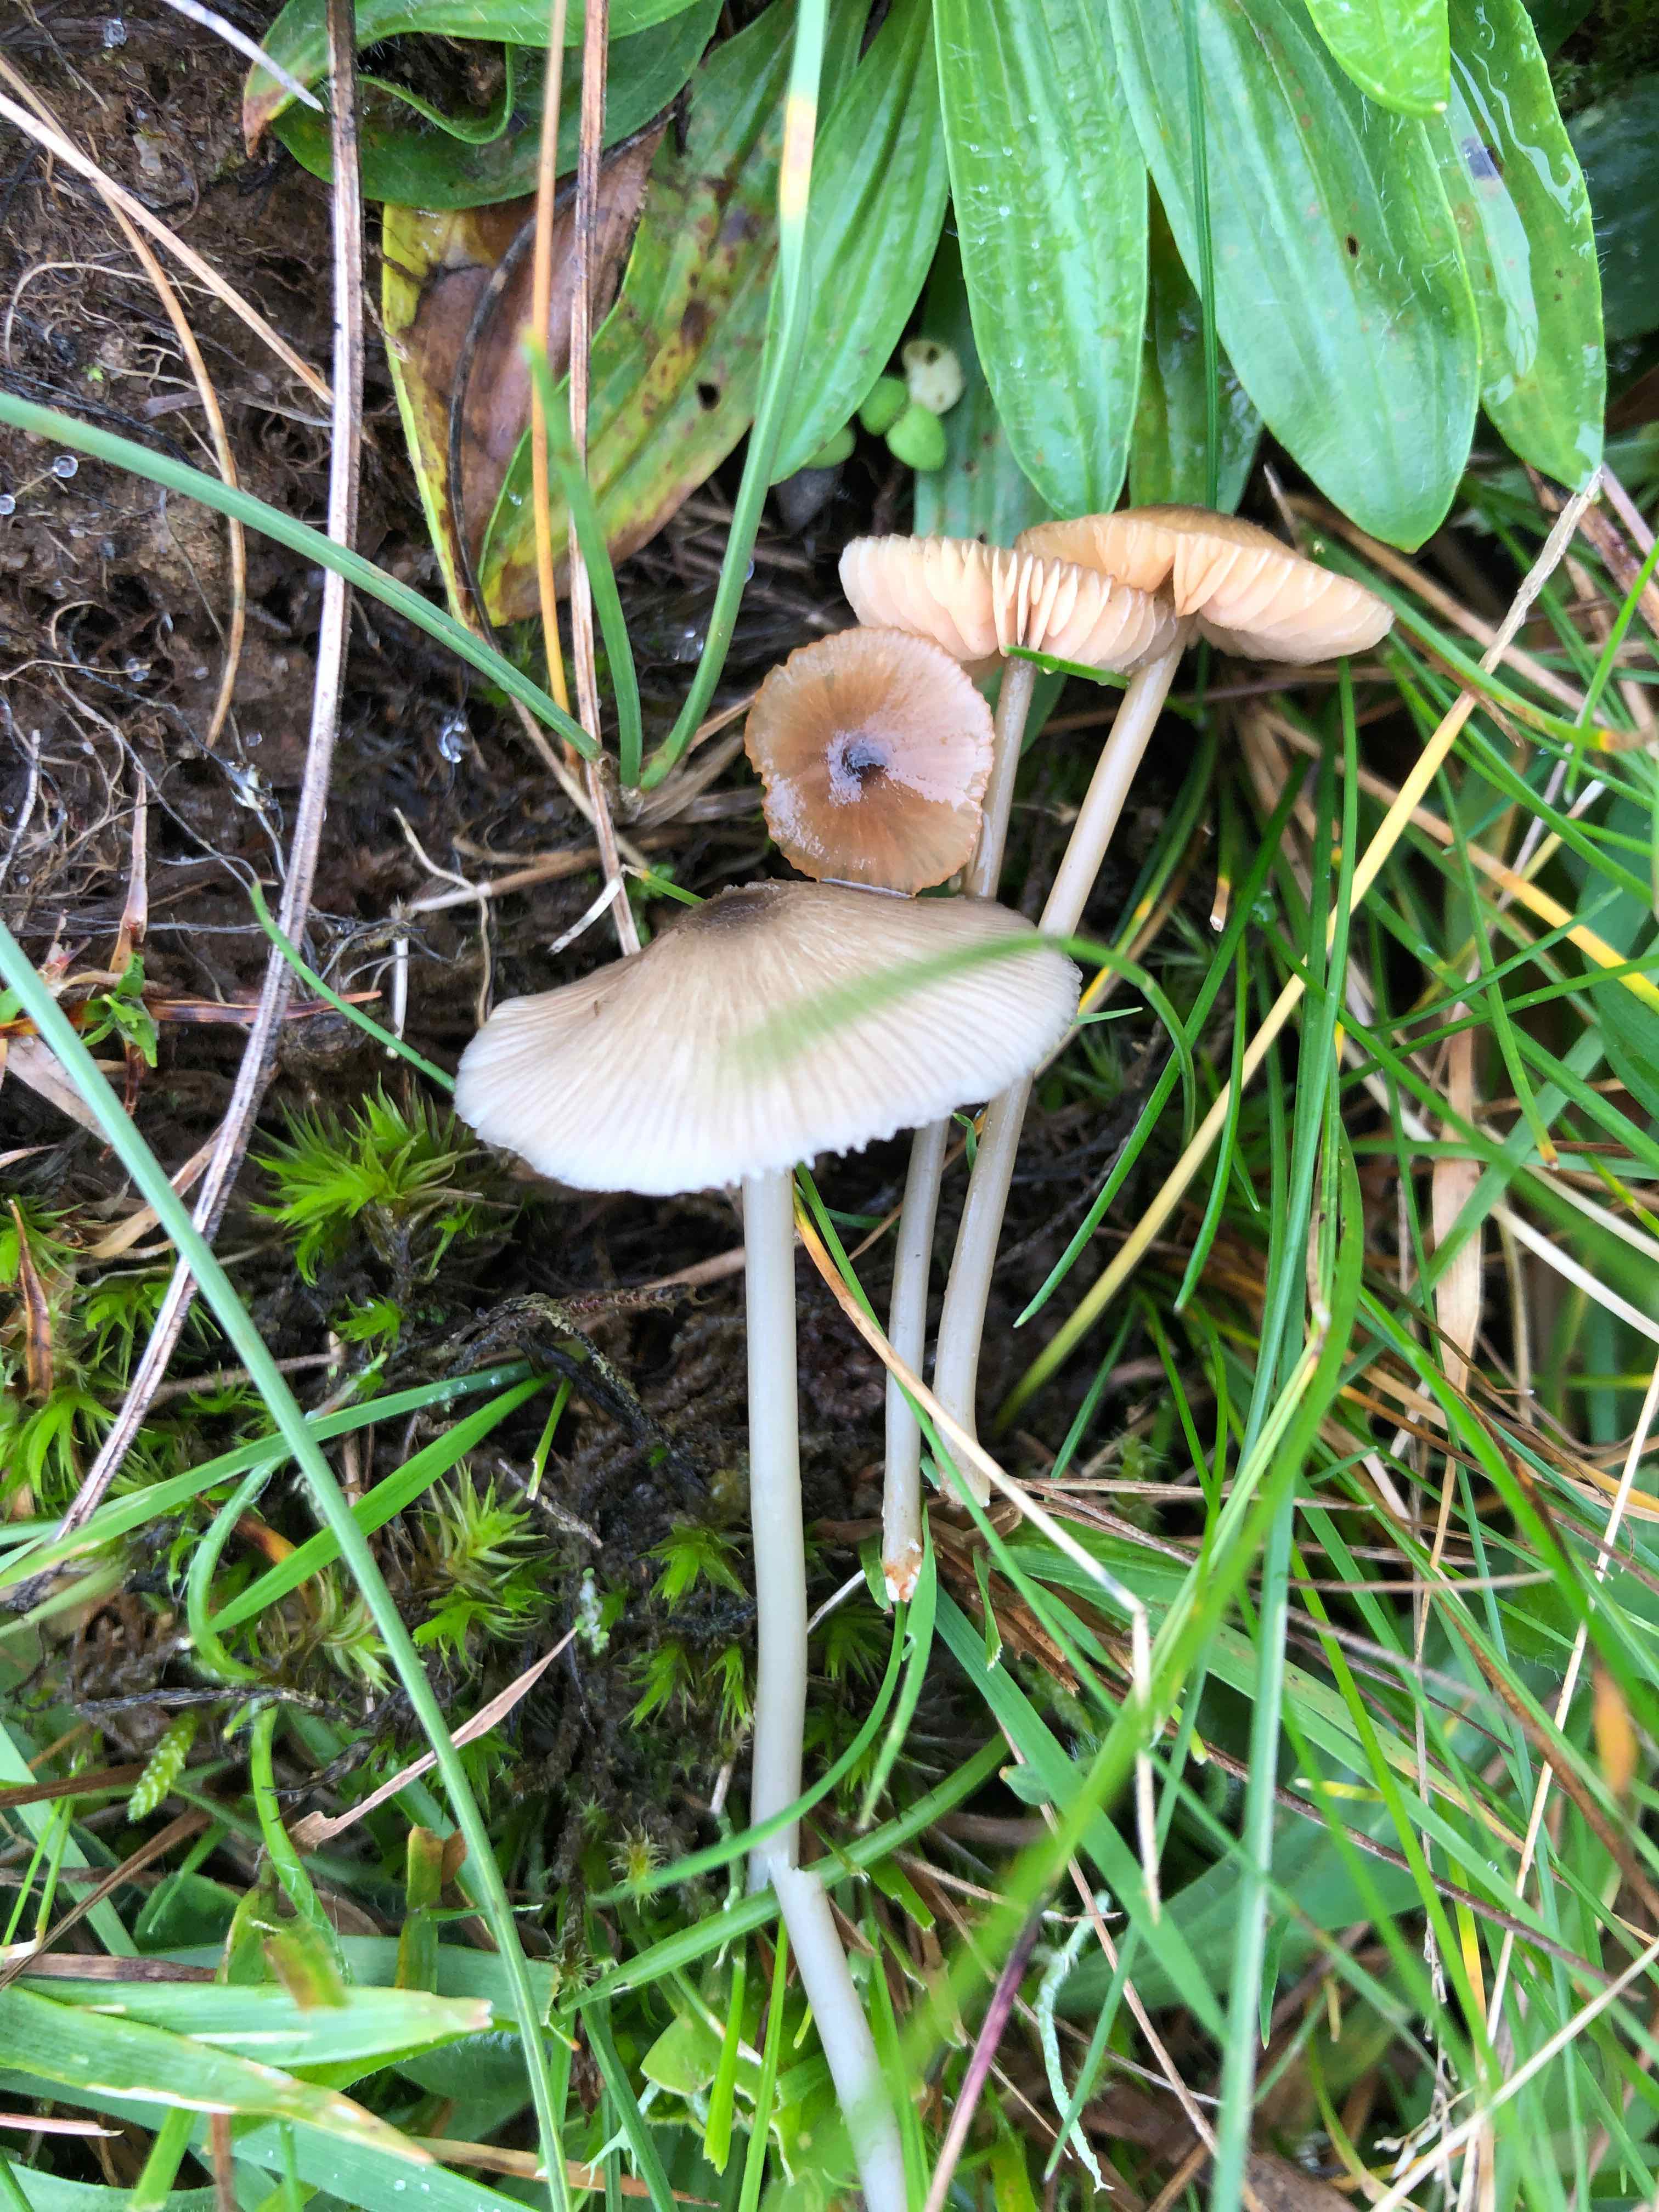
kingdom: Fungi
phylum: Basidiomycota
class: Agaricomycetes
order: Agaricales
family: Entolomataceae
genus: Entoloma
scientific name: Entoloma exile
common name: rødplettet rødblad
